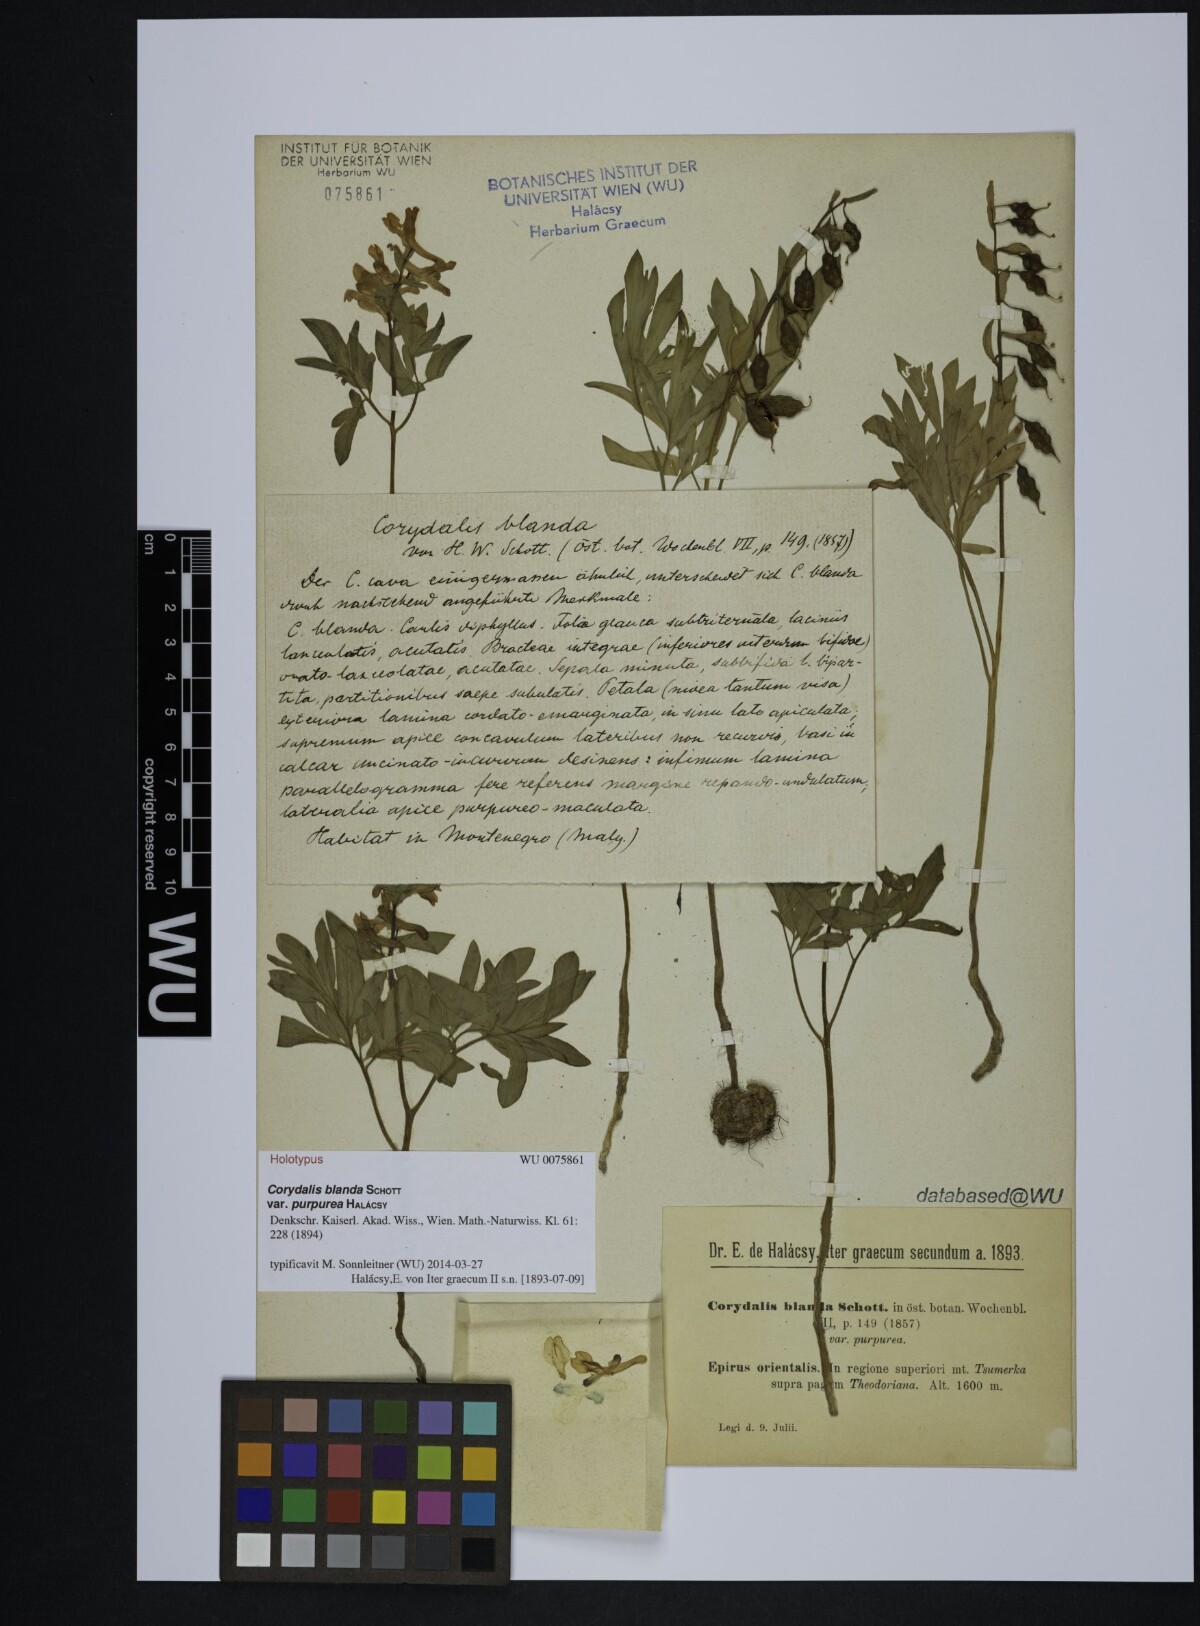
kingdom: Plantae
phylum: Tracheophyta
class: Magnoliopsida
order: Ranunculales
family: Papaveraceae
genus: Corydalis
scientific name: Corydalis blanda
